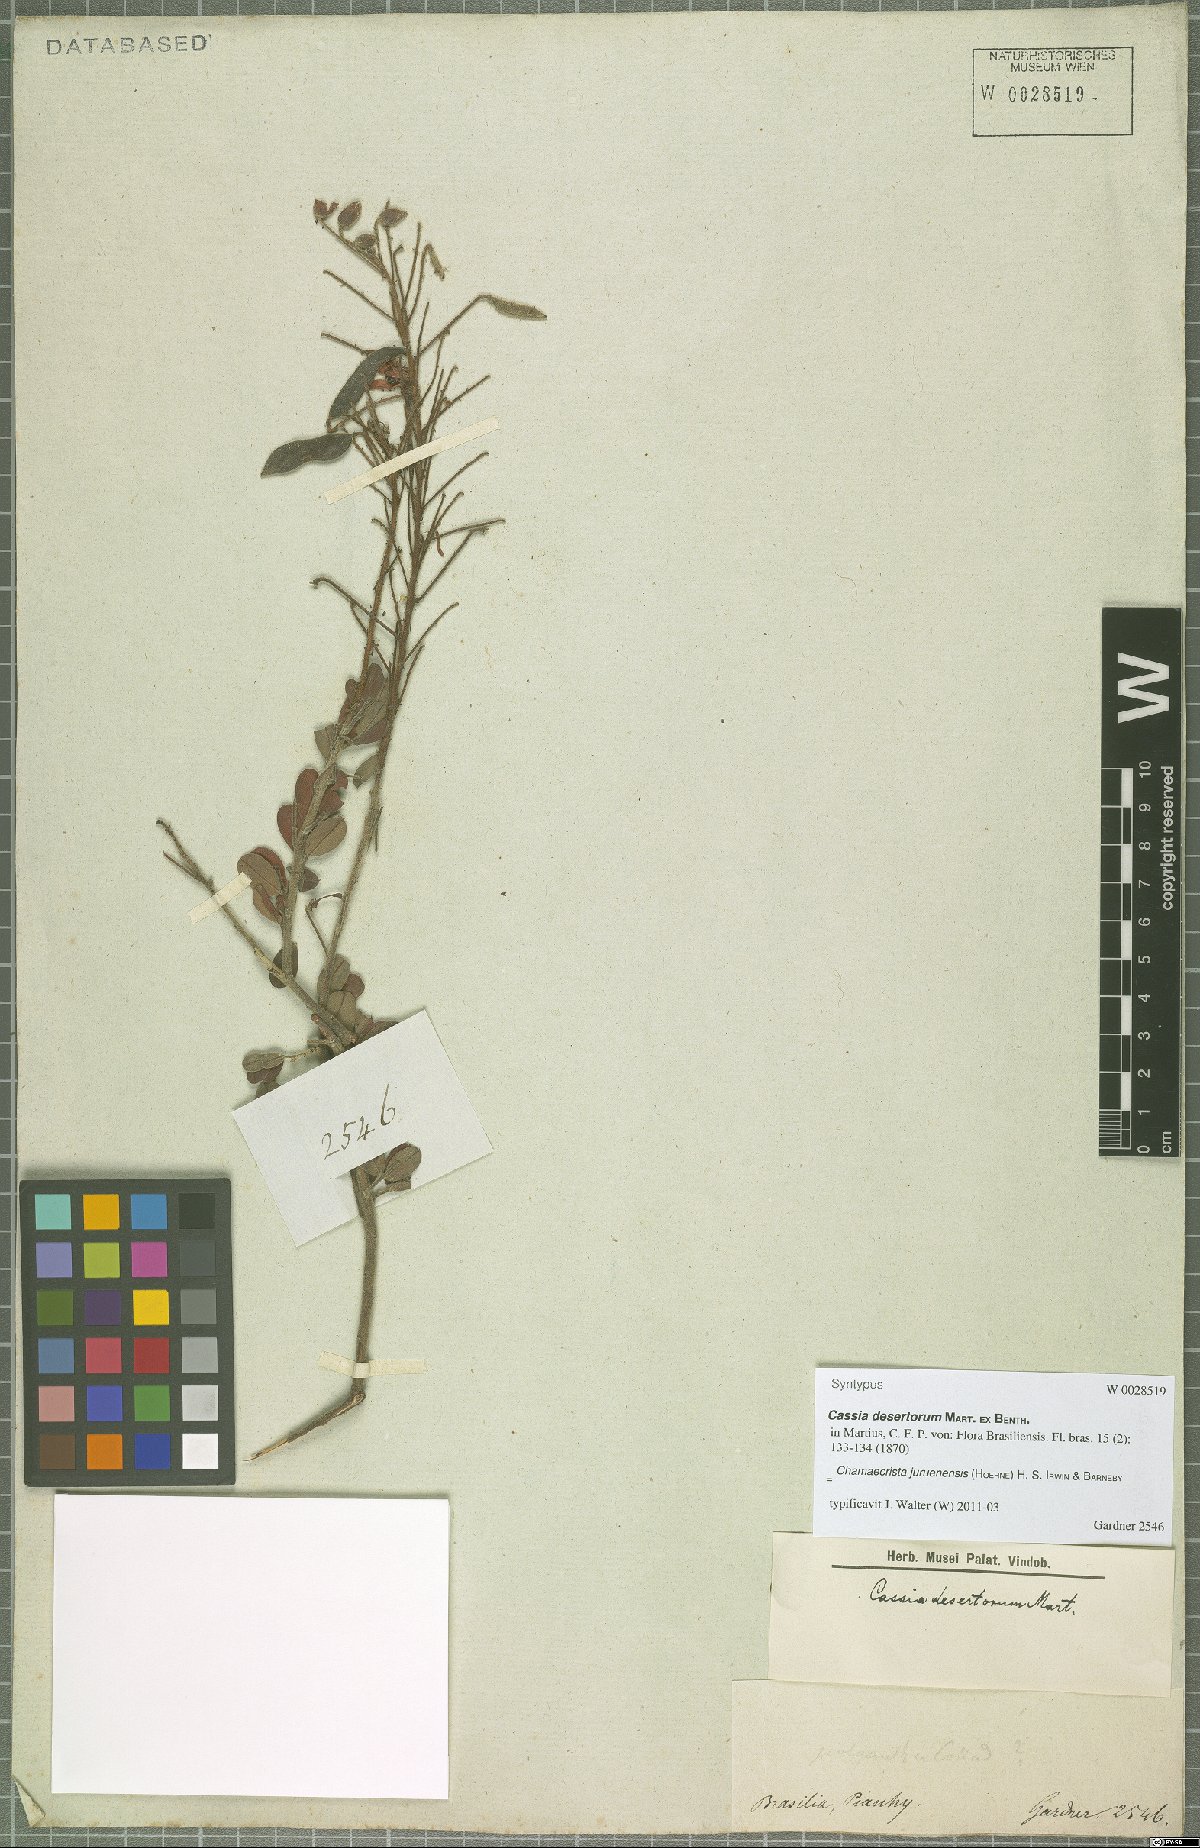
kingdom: Plantae
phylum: Tracheophyta
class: Magnoliopsida
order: Fabales
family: Fabaceae
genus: Chamaecrista
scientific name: Chamaecrista juruenensis
